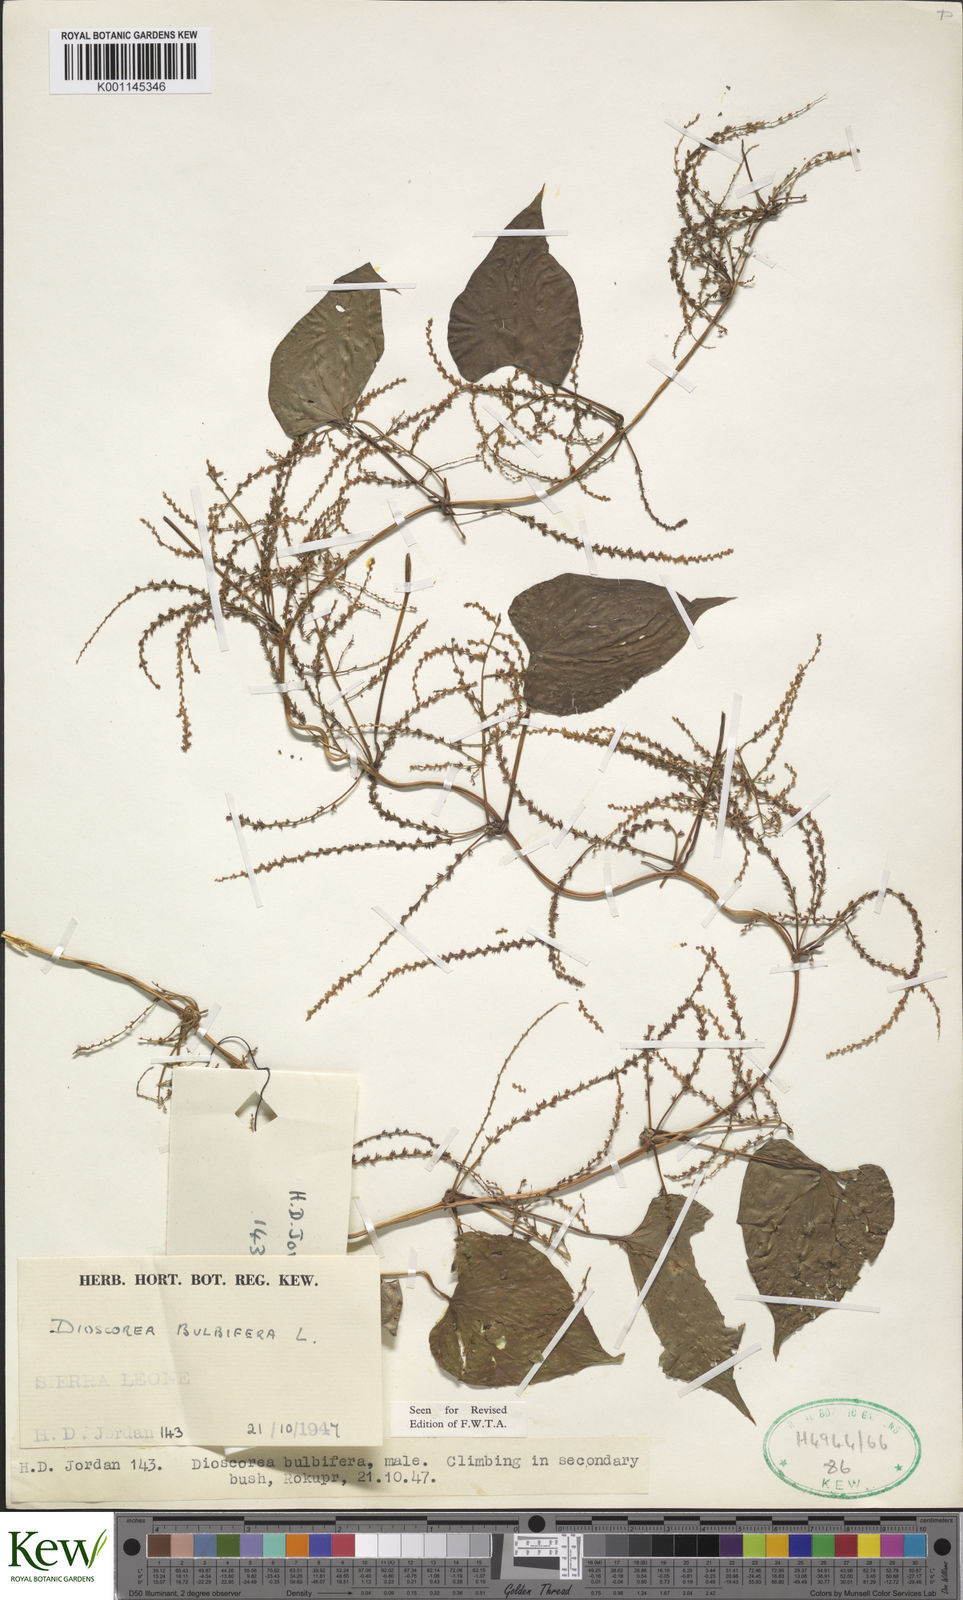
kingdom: Plantae
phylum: Tracheophyta
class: Liliopsida
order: Dioscoreales
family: Dioscoreaceae
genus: Dioscorea
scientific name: Dioscorea bulbifera
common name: Air yam
